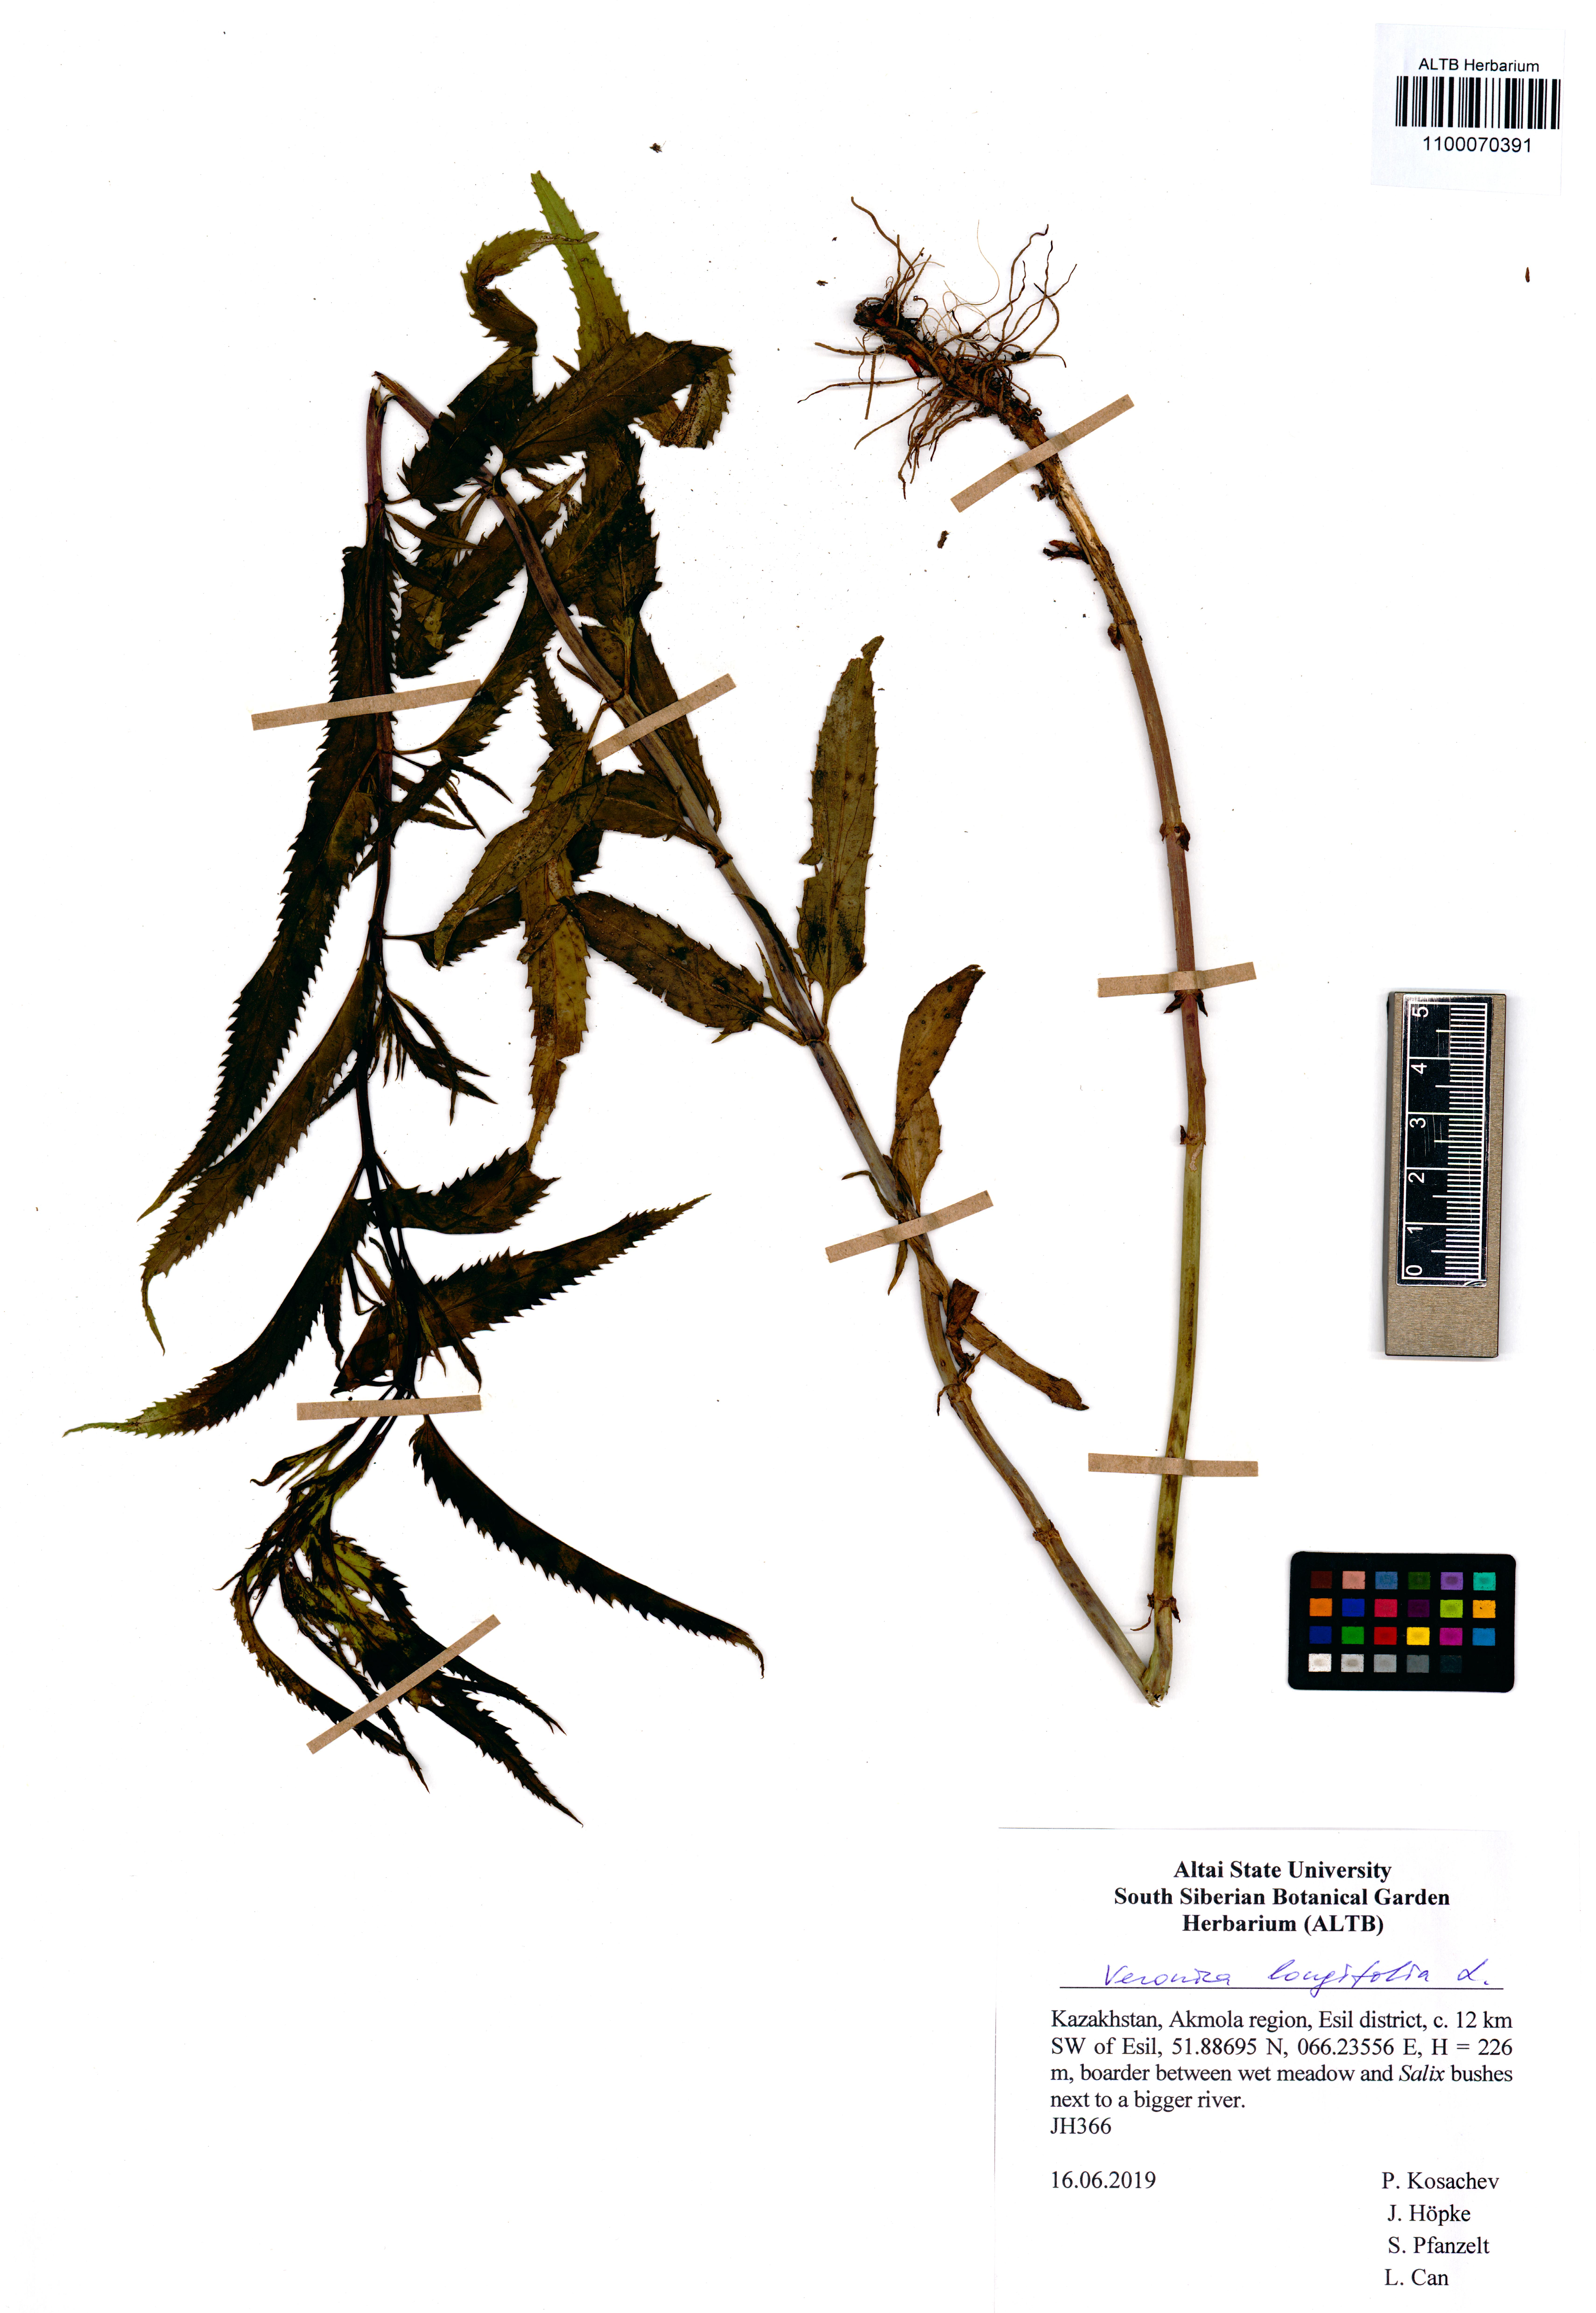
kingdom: Plantae
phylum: Tracheophyta
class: Magnoliopsida
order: Lamiales
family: Plantaginaceae
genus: Veronica
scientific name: Veronica longifolia
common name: Garden speedwell
